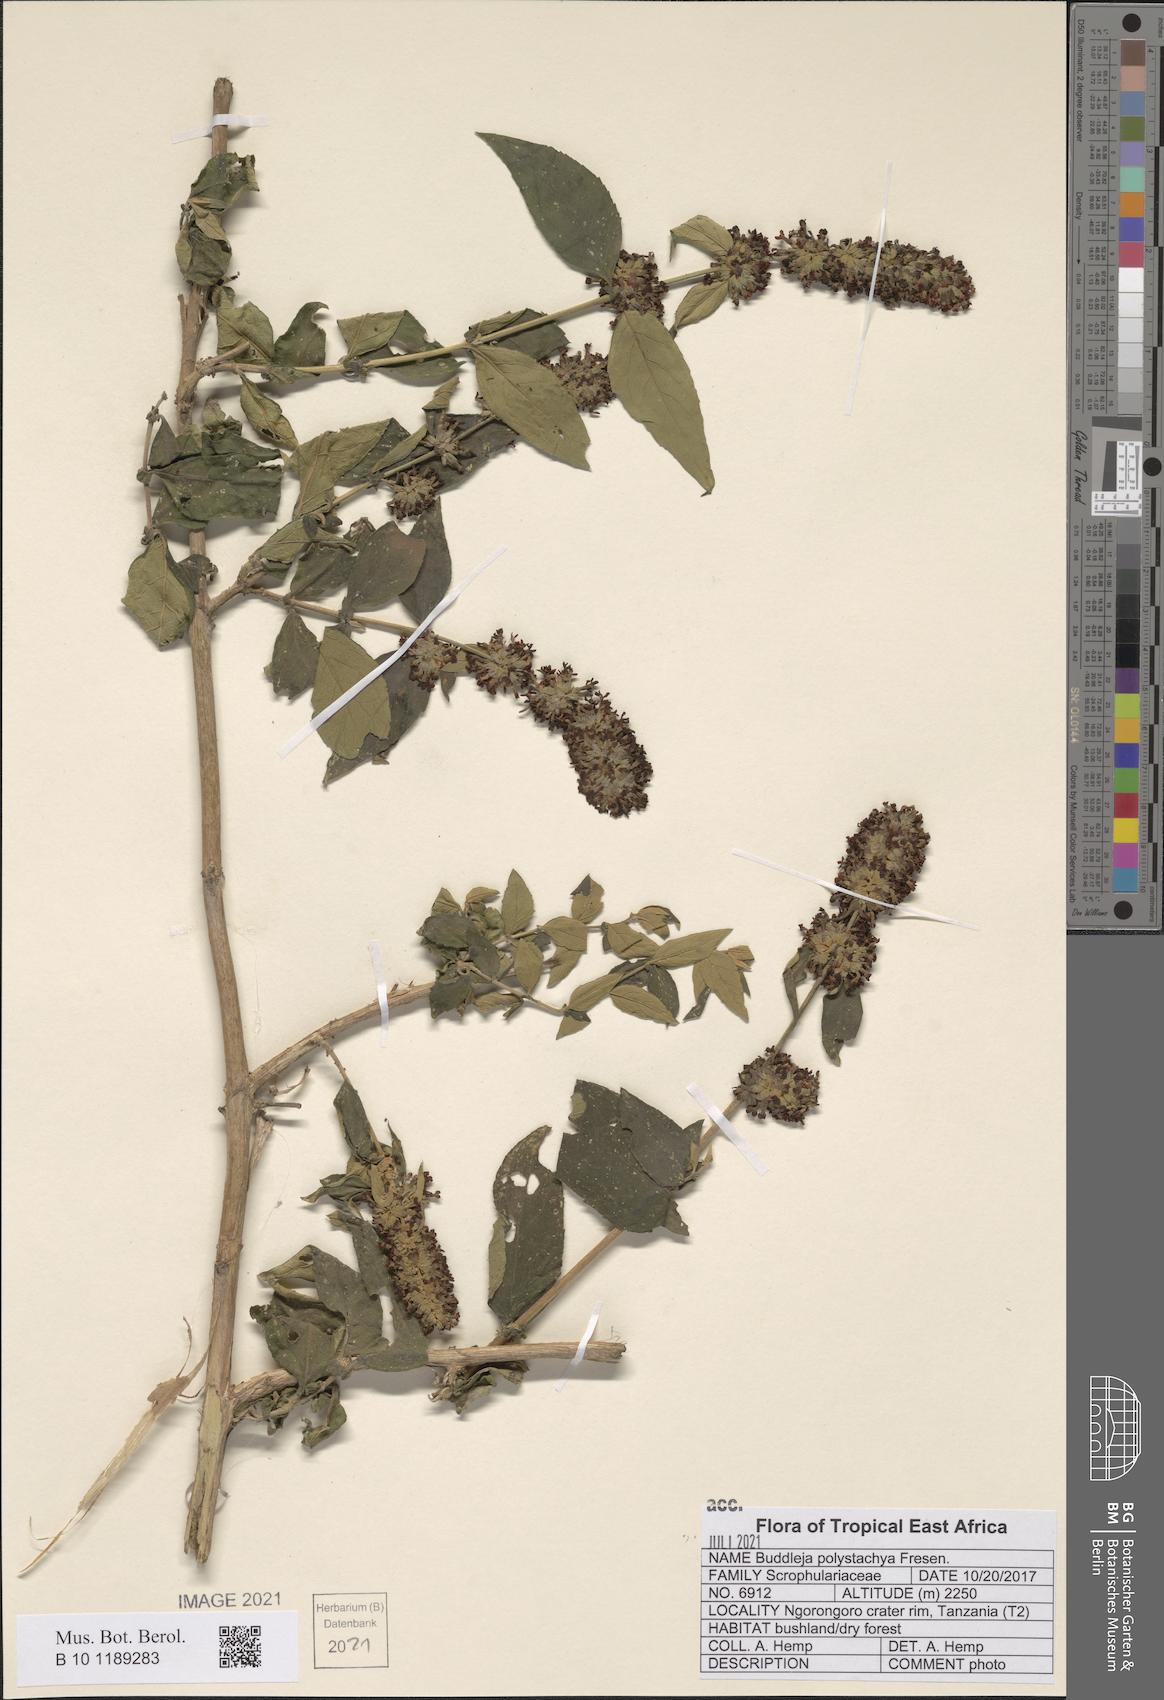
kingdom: Plantae
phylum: Tracheophyta
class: Magnoliopsida
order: Lamiales
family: Scrophulariaceae
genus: Buddleja
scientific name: Buddleja polystachya
